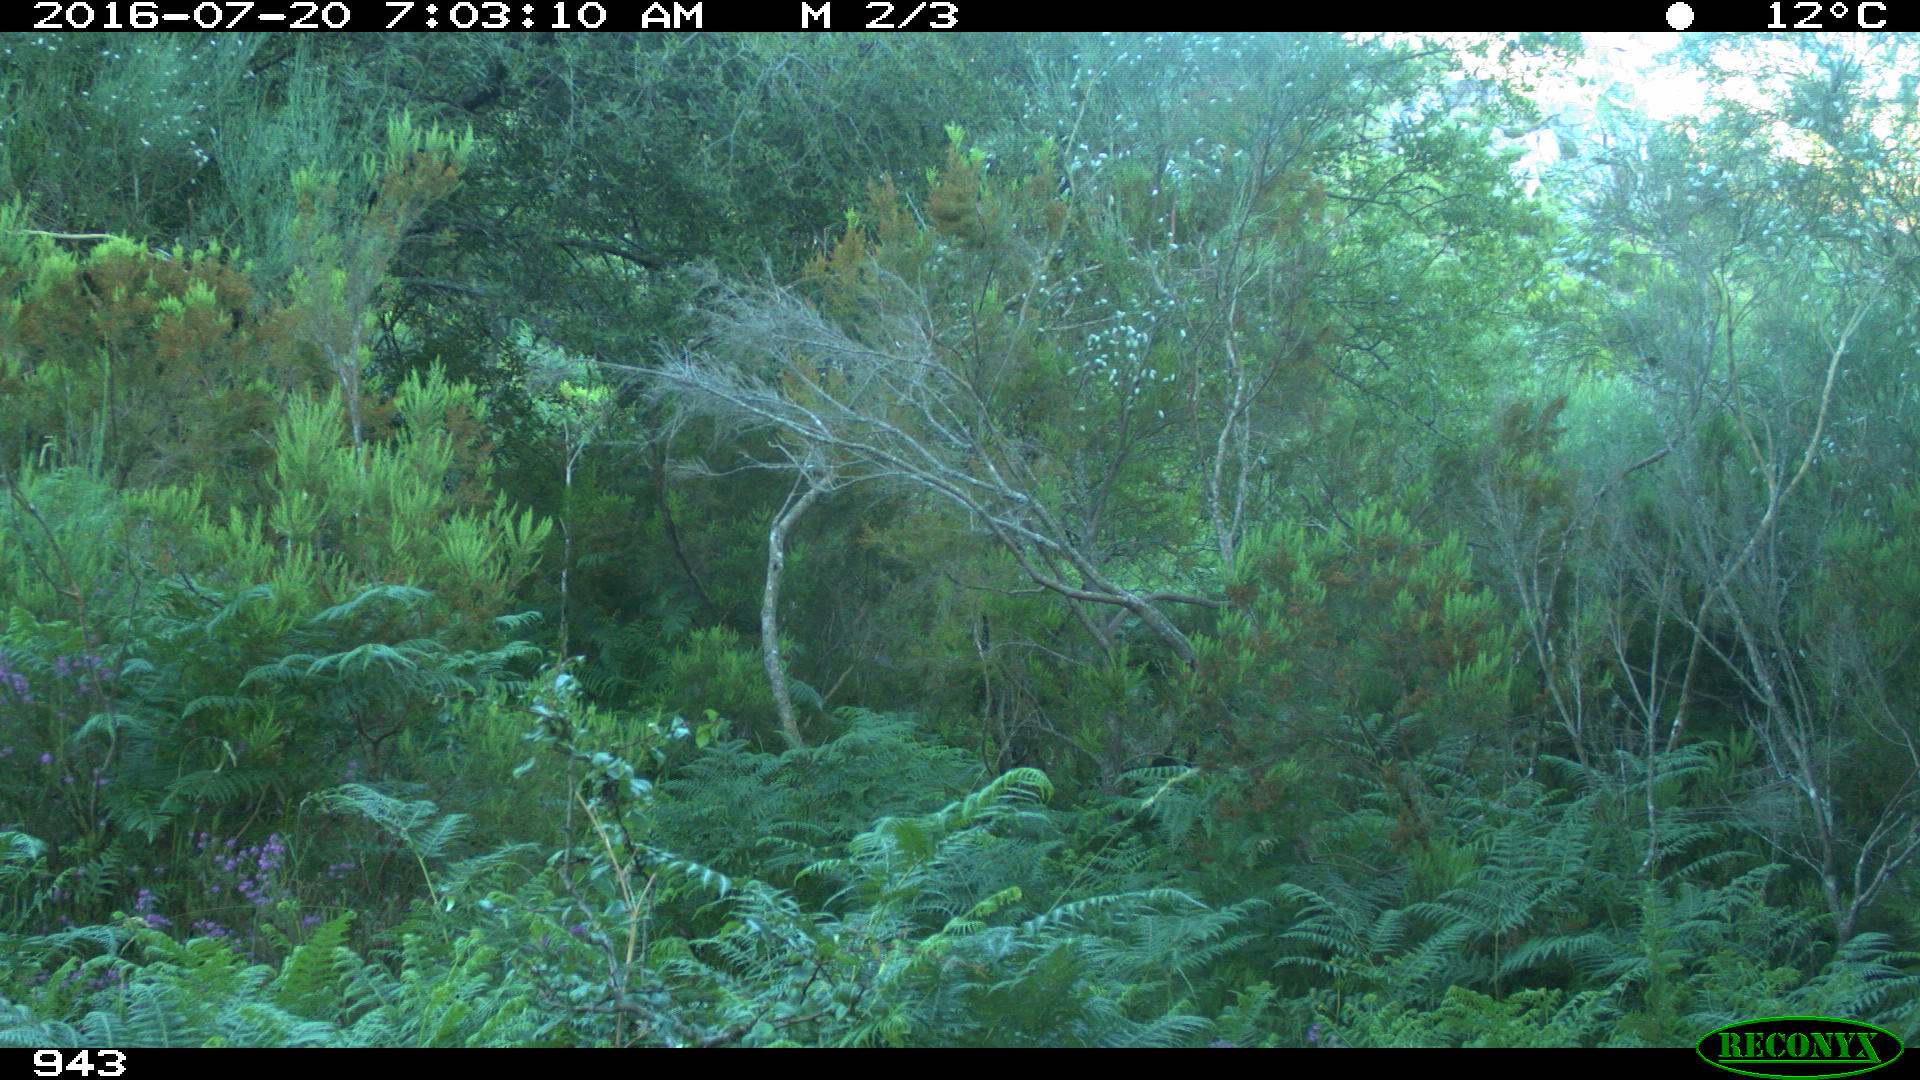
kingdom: Animalia
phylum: Chordata
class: Mammalia
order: Artiodactyla
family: Bovidae
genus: Bos
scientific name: Bos taurus
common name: Domesticated cattle
